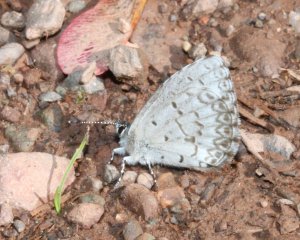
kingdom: Animalia
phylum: Arthropoda
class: Insecta
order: Lepidoptera
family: Lycaenidae
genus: Celastrina
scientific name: Celastrina lucia
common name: Northern Spring Azure
